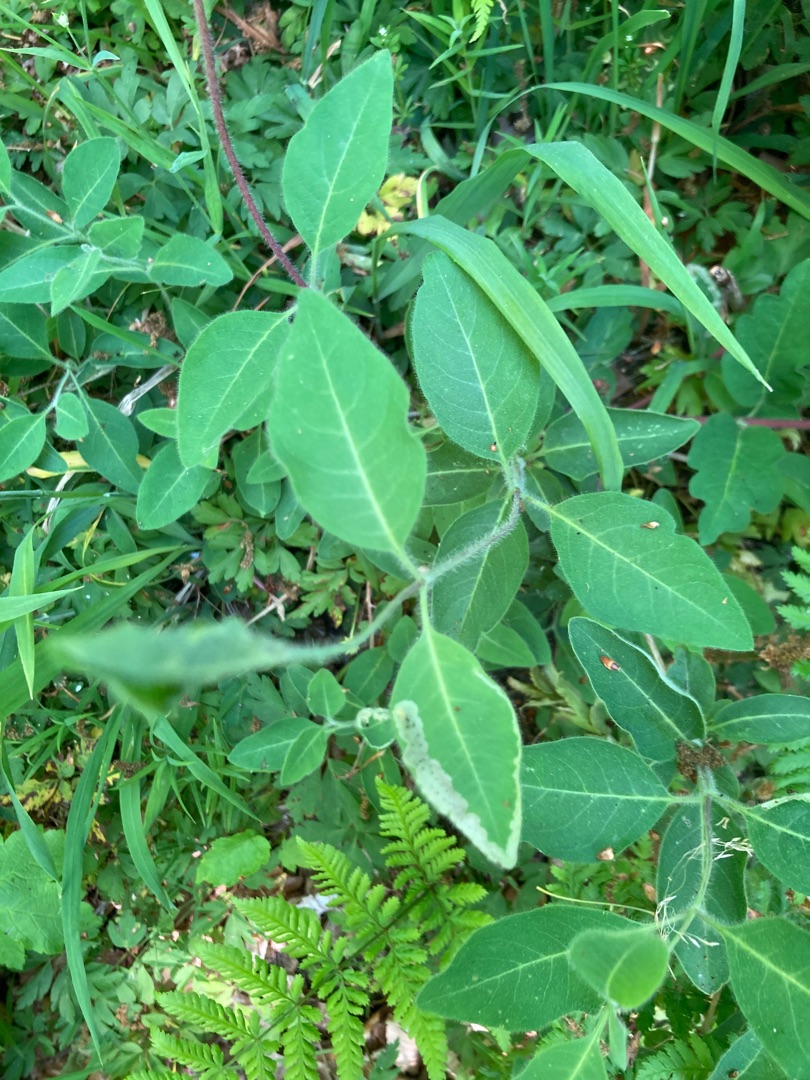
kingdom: Plantae
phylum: Tracheophyta
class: Magnoliopsida
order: Dipsacales
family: Caprifoliaceae
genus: Lonicera
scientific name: Lonicera periclymenum
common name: Almindelig gedeblad
